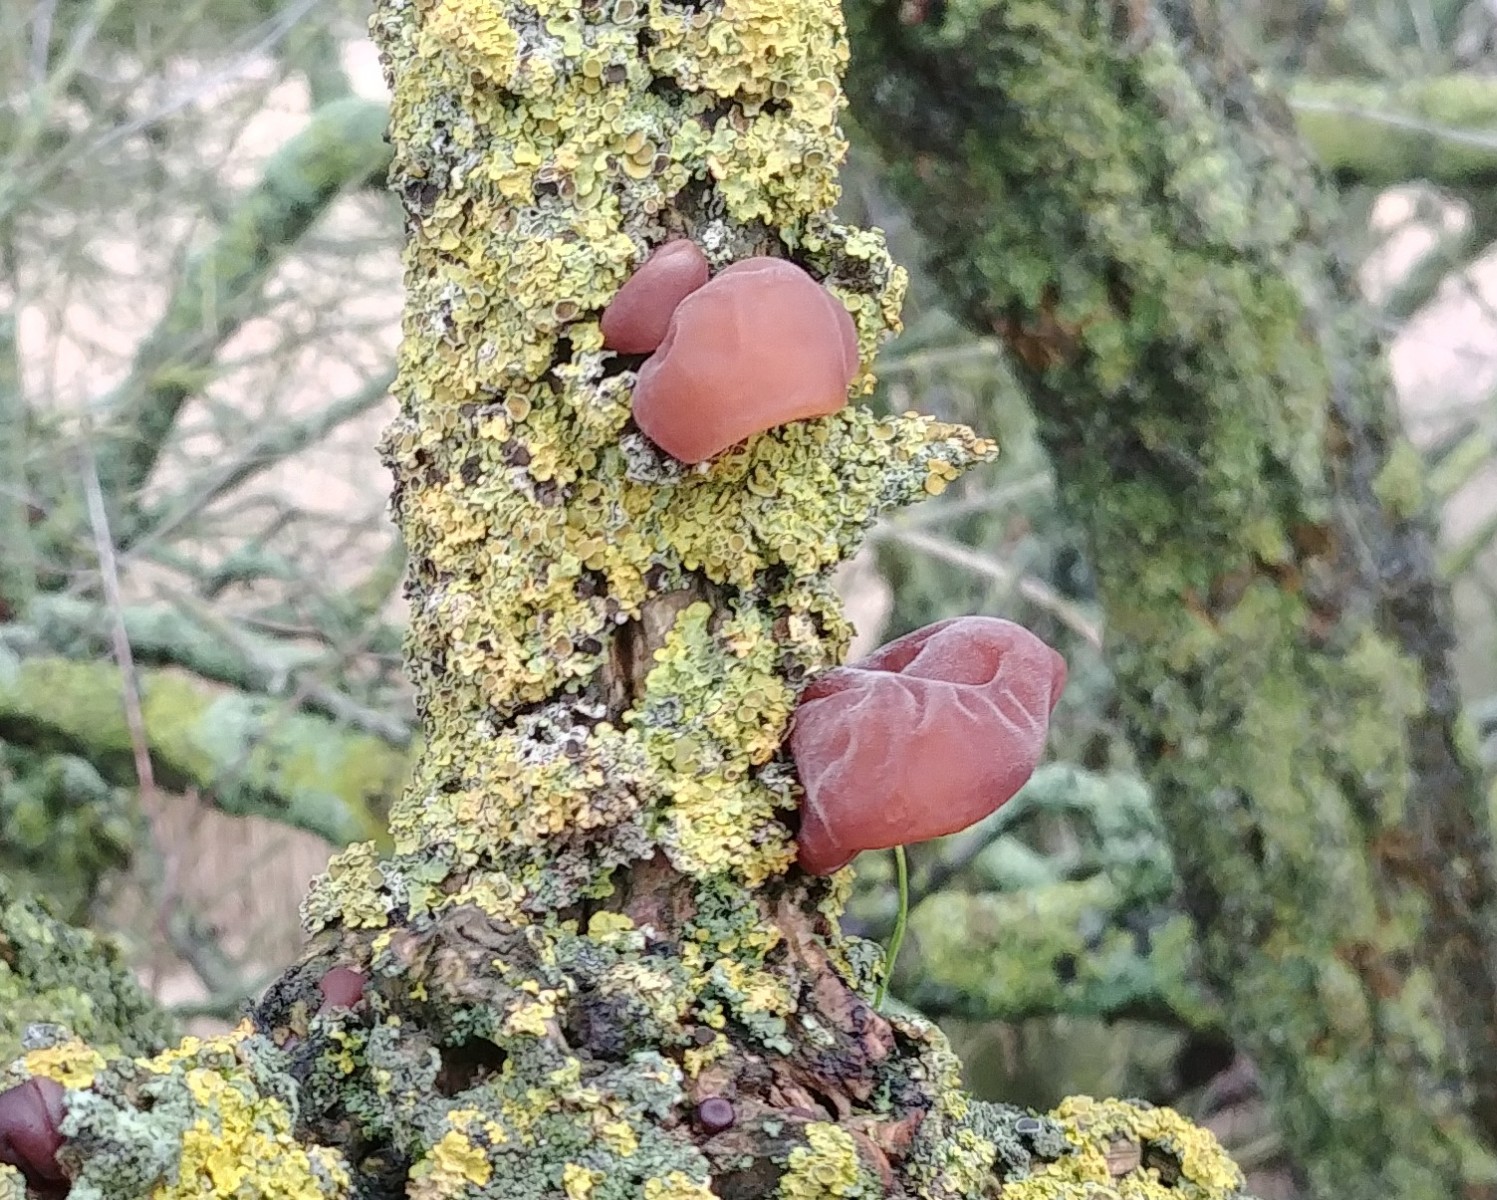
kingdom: Fungi
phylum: Basidiomycota
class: Agaricomycetes
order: Auriculariales
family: Auriculariaceae
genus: Auricularia
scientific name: Auricularia auricula-judae
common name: almindelig judasøre
